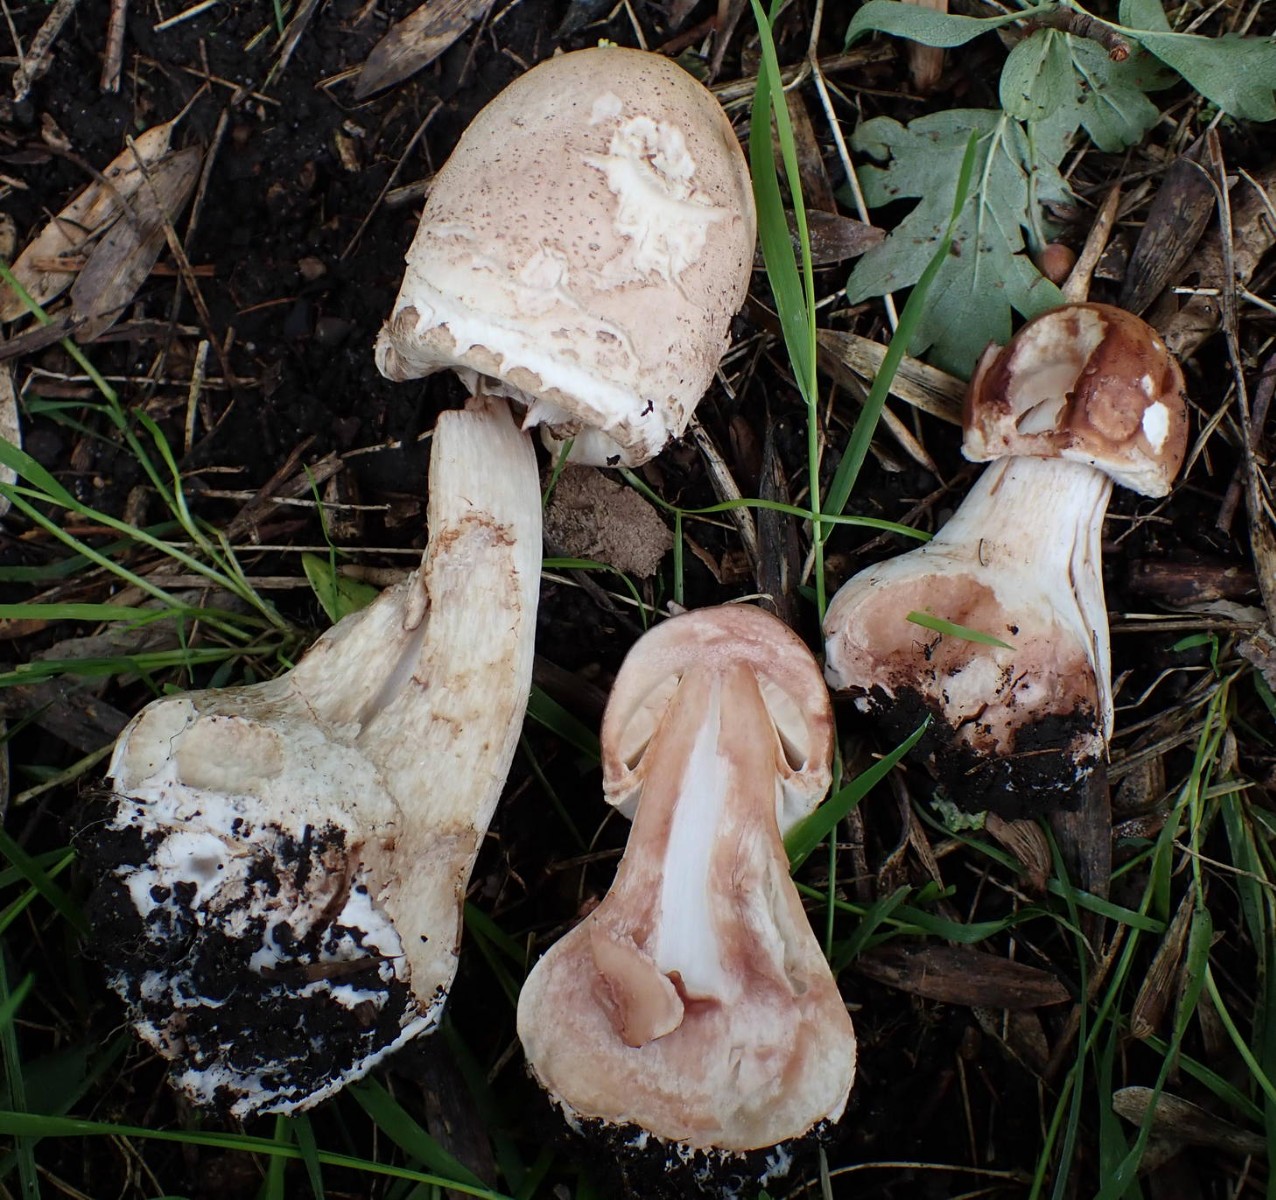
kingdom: Fungi
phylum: Basidiomycota
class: Agaricomycetes
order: Agaricales
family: Agaricaceae
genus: Chlorophyllum
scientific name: Chlorophyllum rhacodes
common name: ægte rabarberhat
